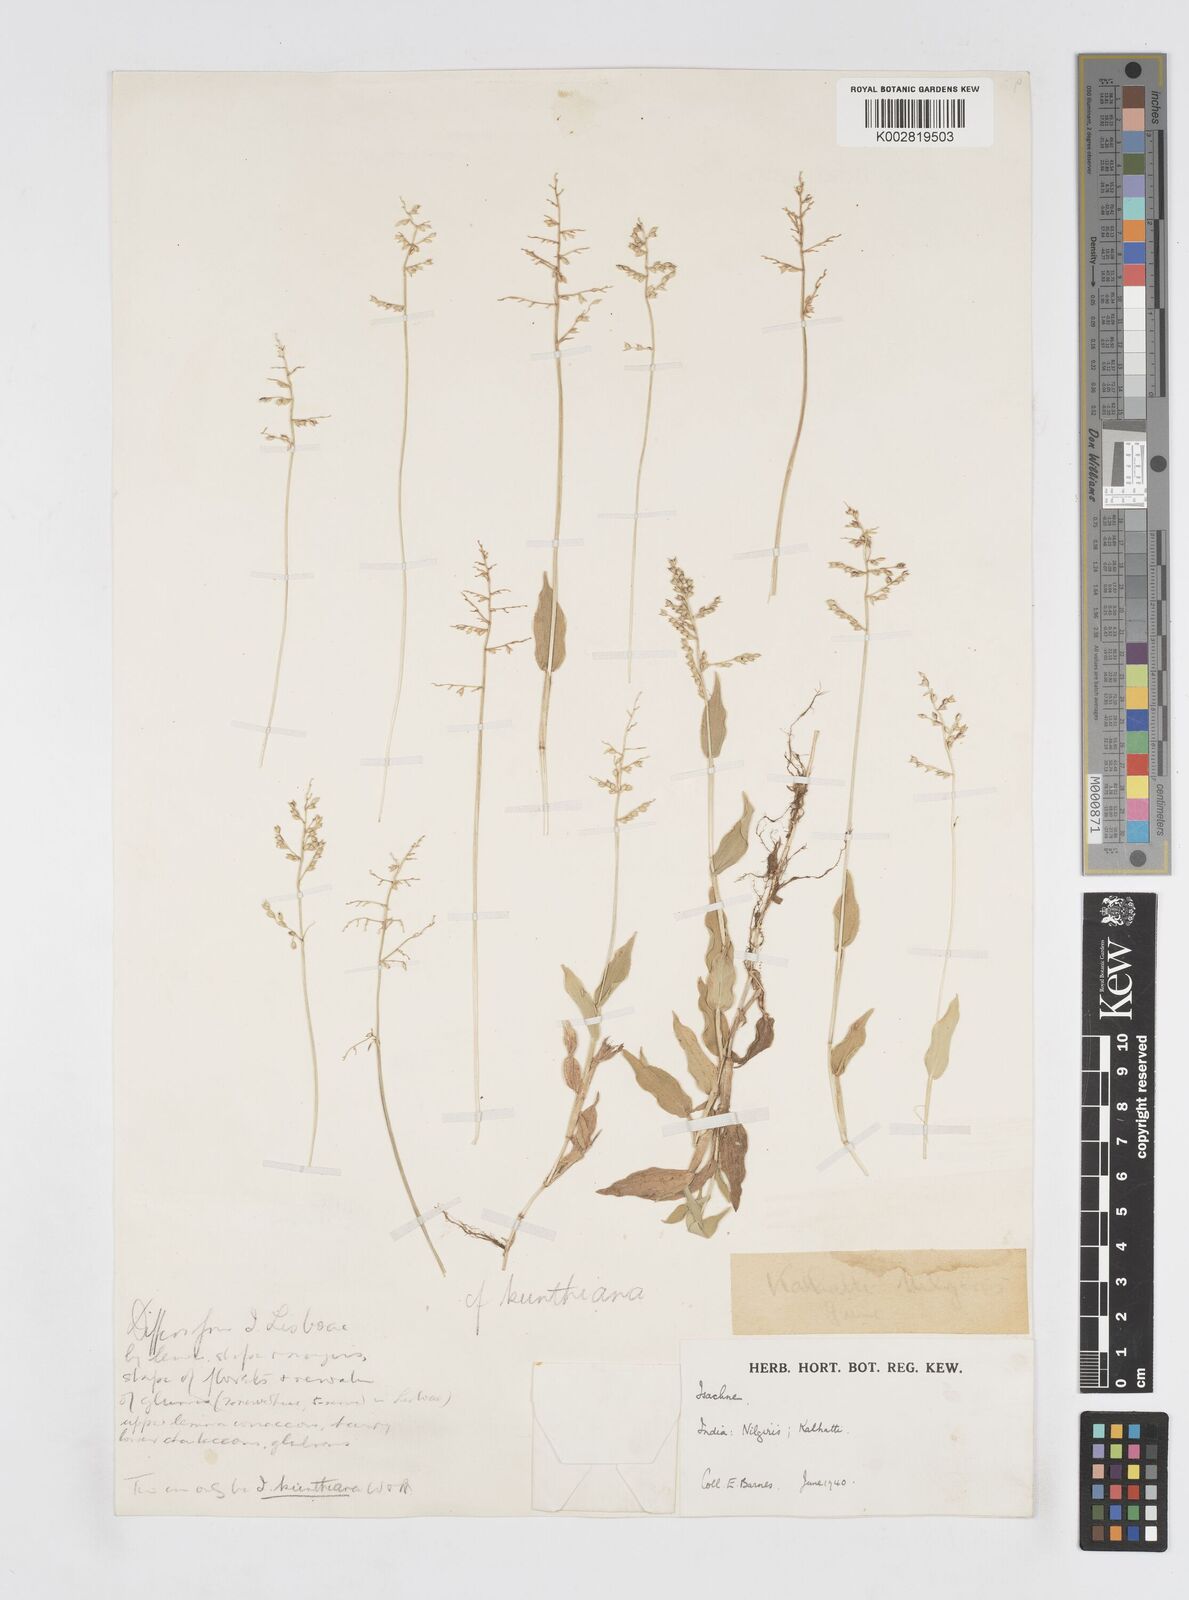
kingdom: Plantae
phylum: Tracheophyta
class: Liliopsida
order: Poales
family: Poaceae
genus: Isachne
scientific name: Isachne kunthiana
